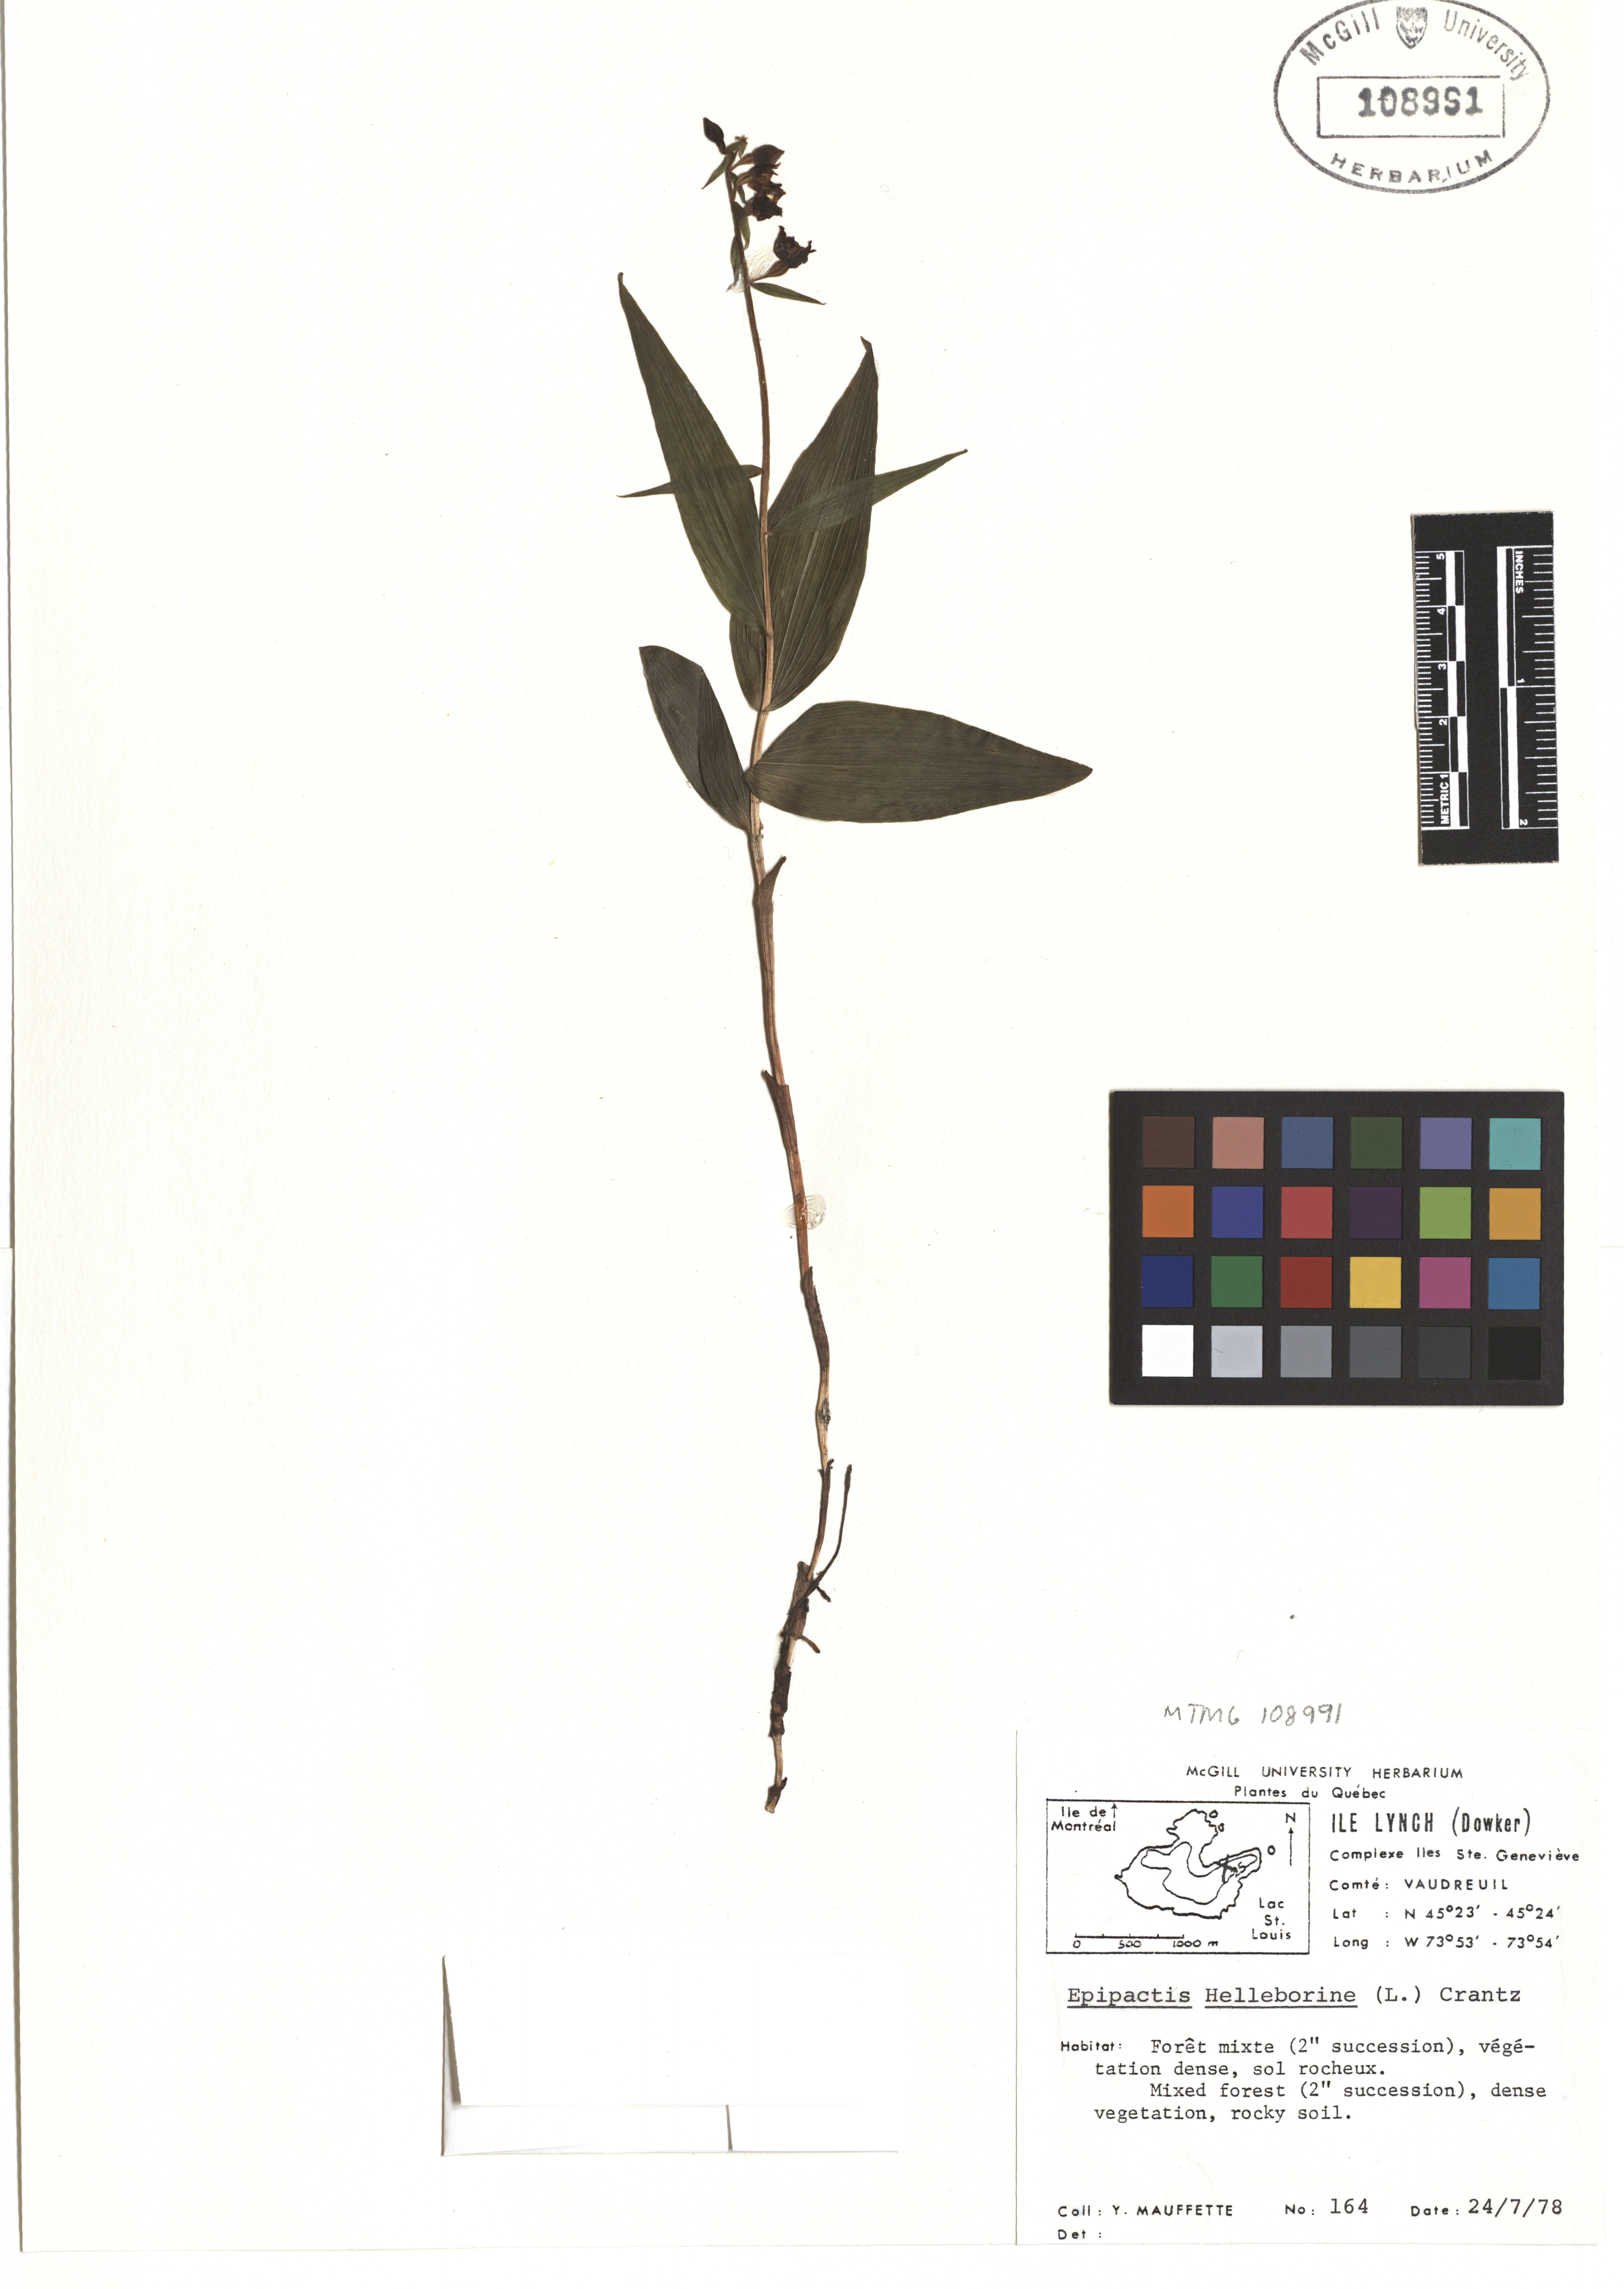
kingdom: Plantae
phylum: Tracheophyta
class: Liliopsida
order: Asparagales
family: Orchidaceae
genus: Epipactis
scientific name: Epipactis helleborine
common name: Broad-leaved helleborine
